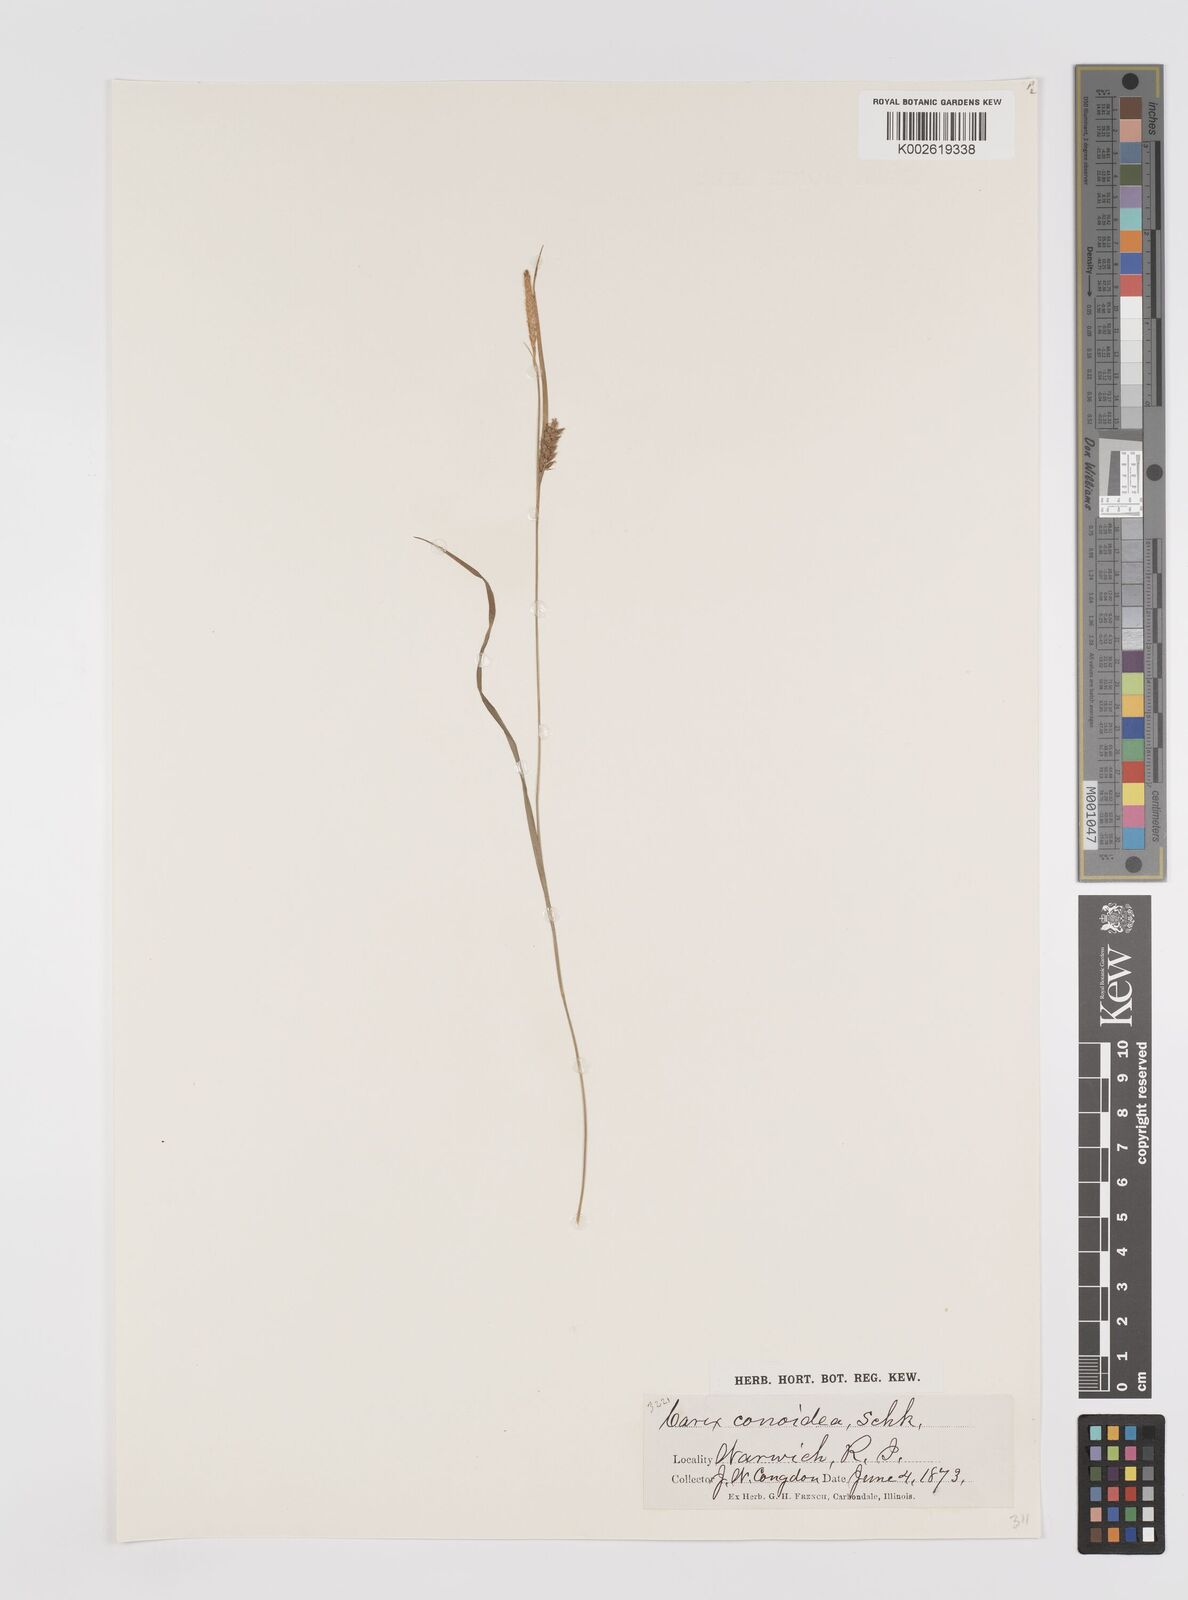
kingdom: Plantae
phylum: Tracheophyta
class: Liliopsida
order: Poales
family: Cyperaceae
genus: Carex
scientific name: Carex conoidea
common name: Cone shaped sedge
